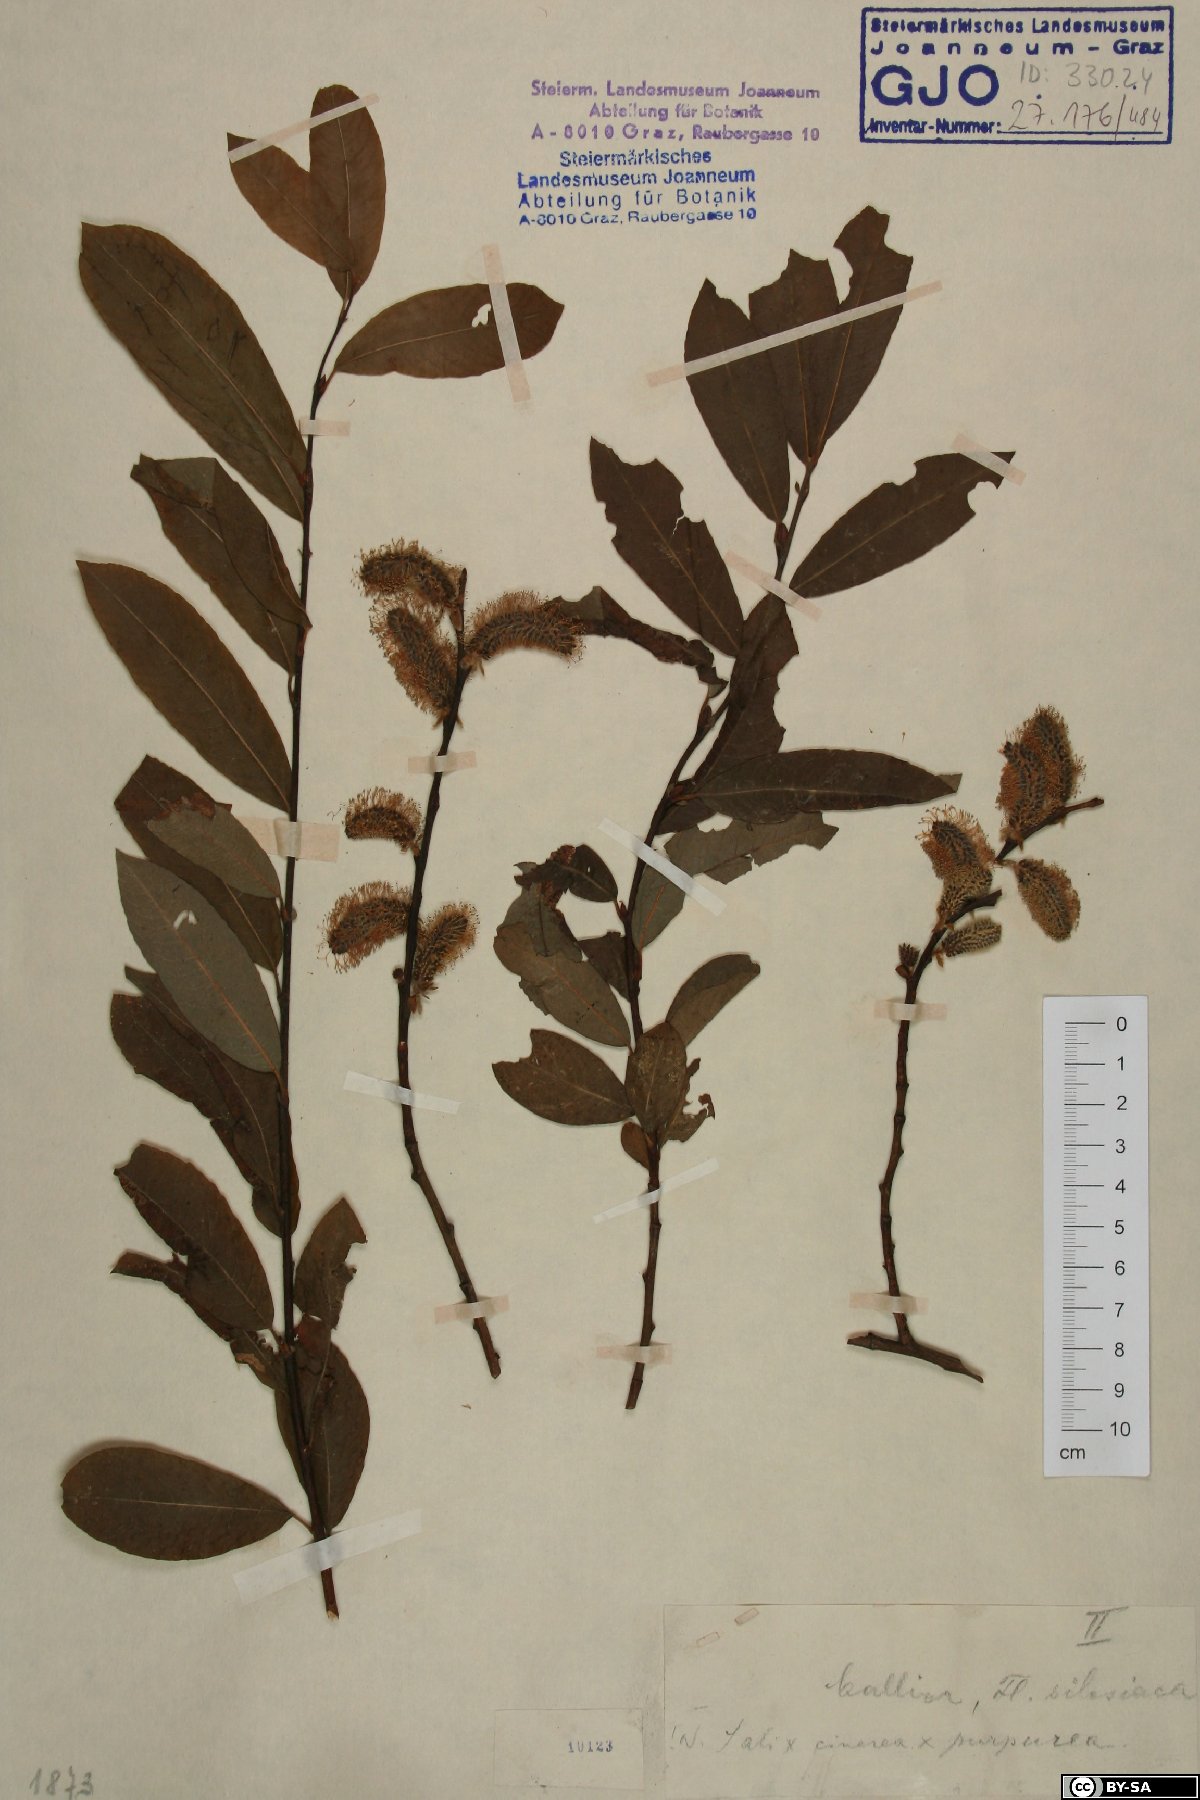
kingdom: Plantae
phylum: Tracheophyta
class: Magnoliopsida
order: Malpighiales
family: Salicaceae
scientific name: Salicaceae
